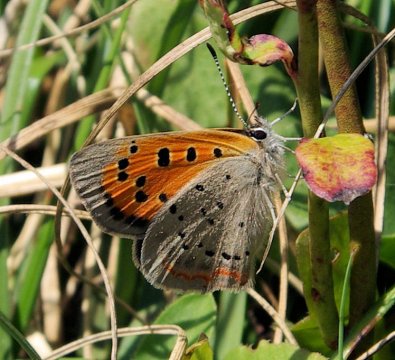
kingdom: Animalia
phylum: Arthropoda
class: Insecta
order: Lepidoptera
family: Lycaenidae
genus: Lycaena
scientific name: Lycaena phlaeas
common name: American Copper
